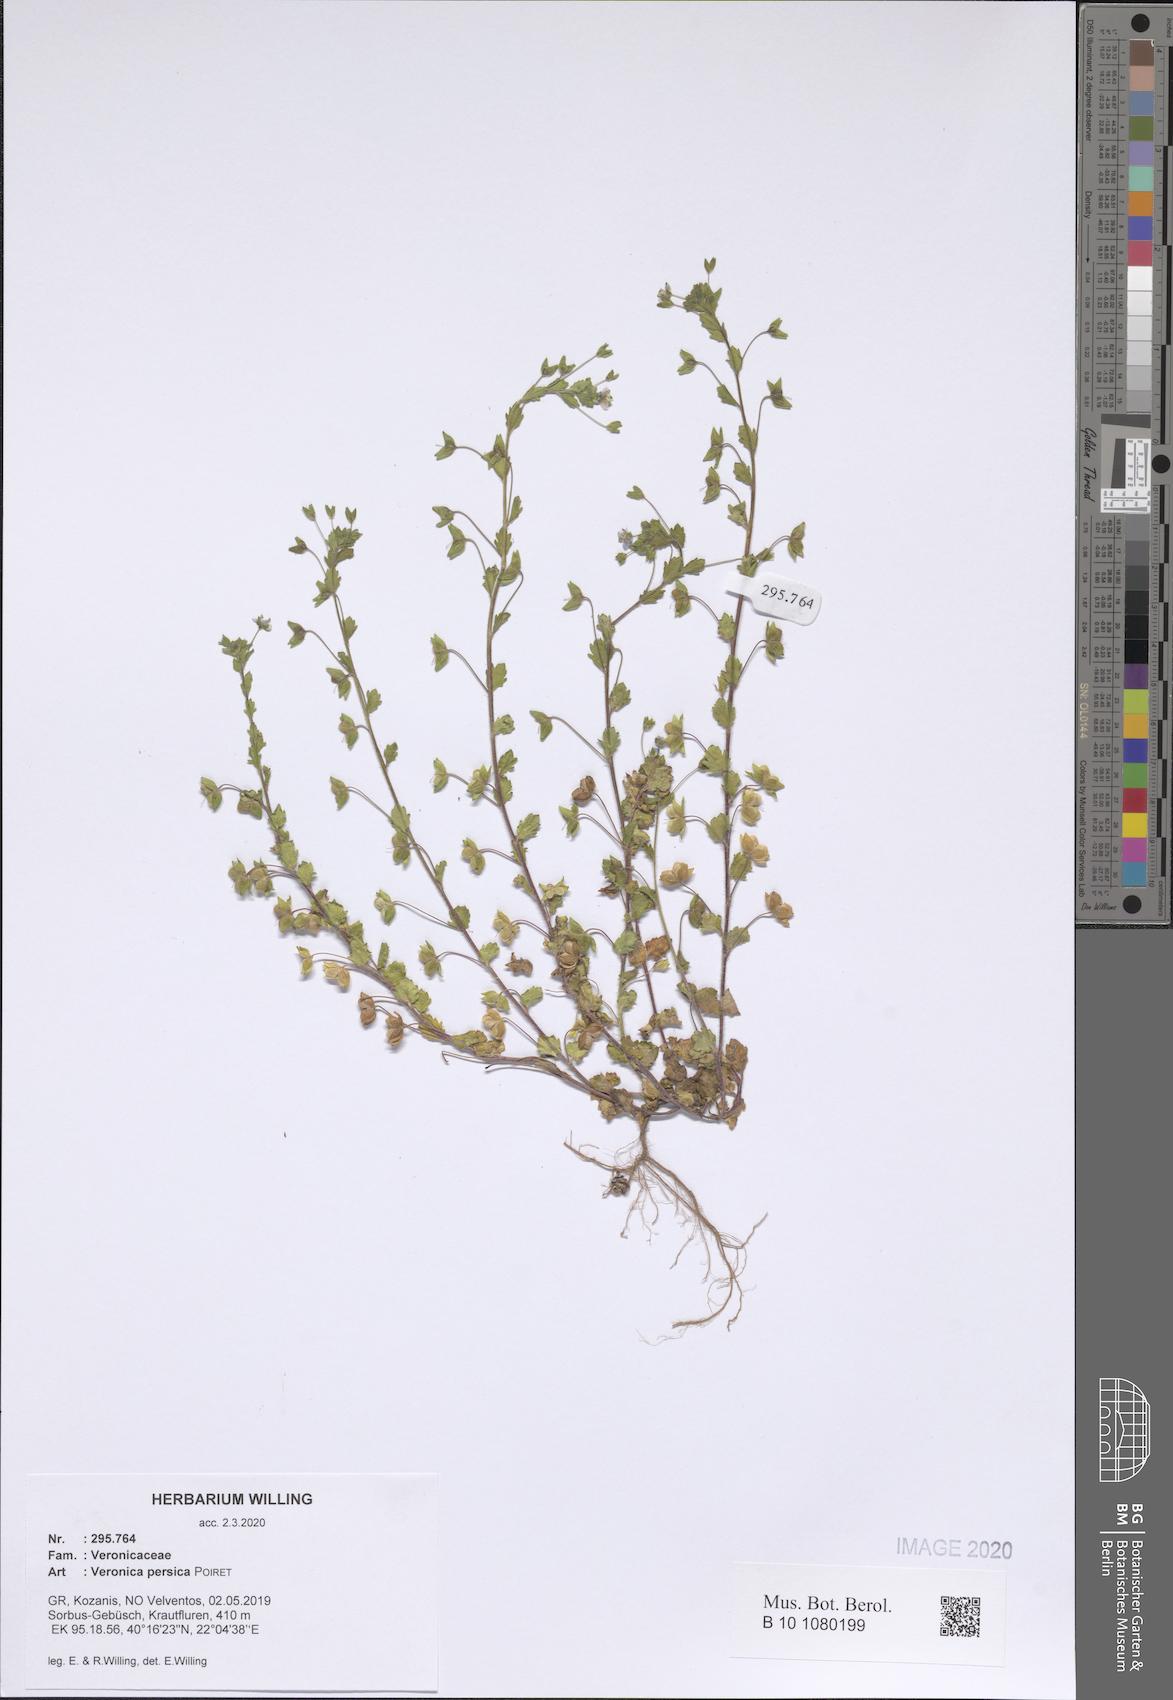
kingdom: Plantae
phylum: Tracheophyta
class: Magnoliopsida
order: Lamiales
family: Plantaginaceae
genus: Veronica
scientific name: Veronica persica
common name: Common field-speedwell
